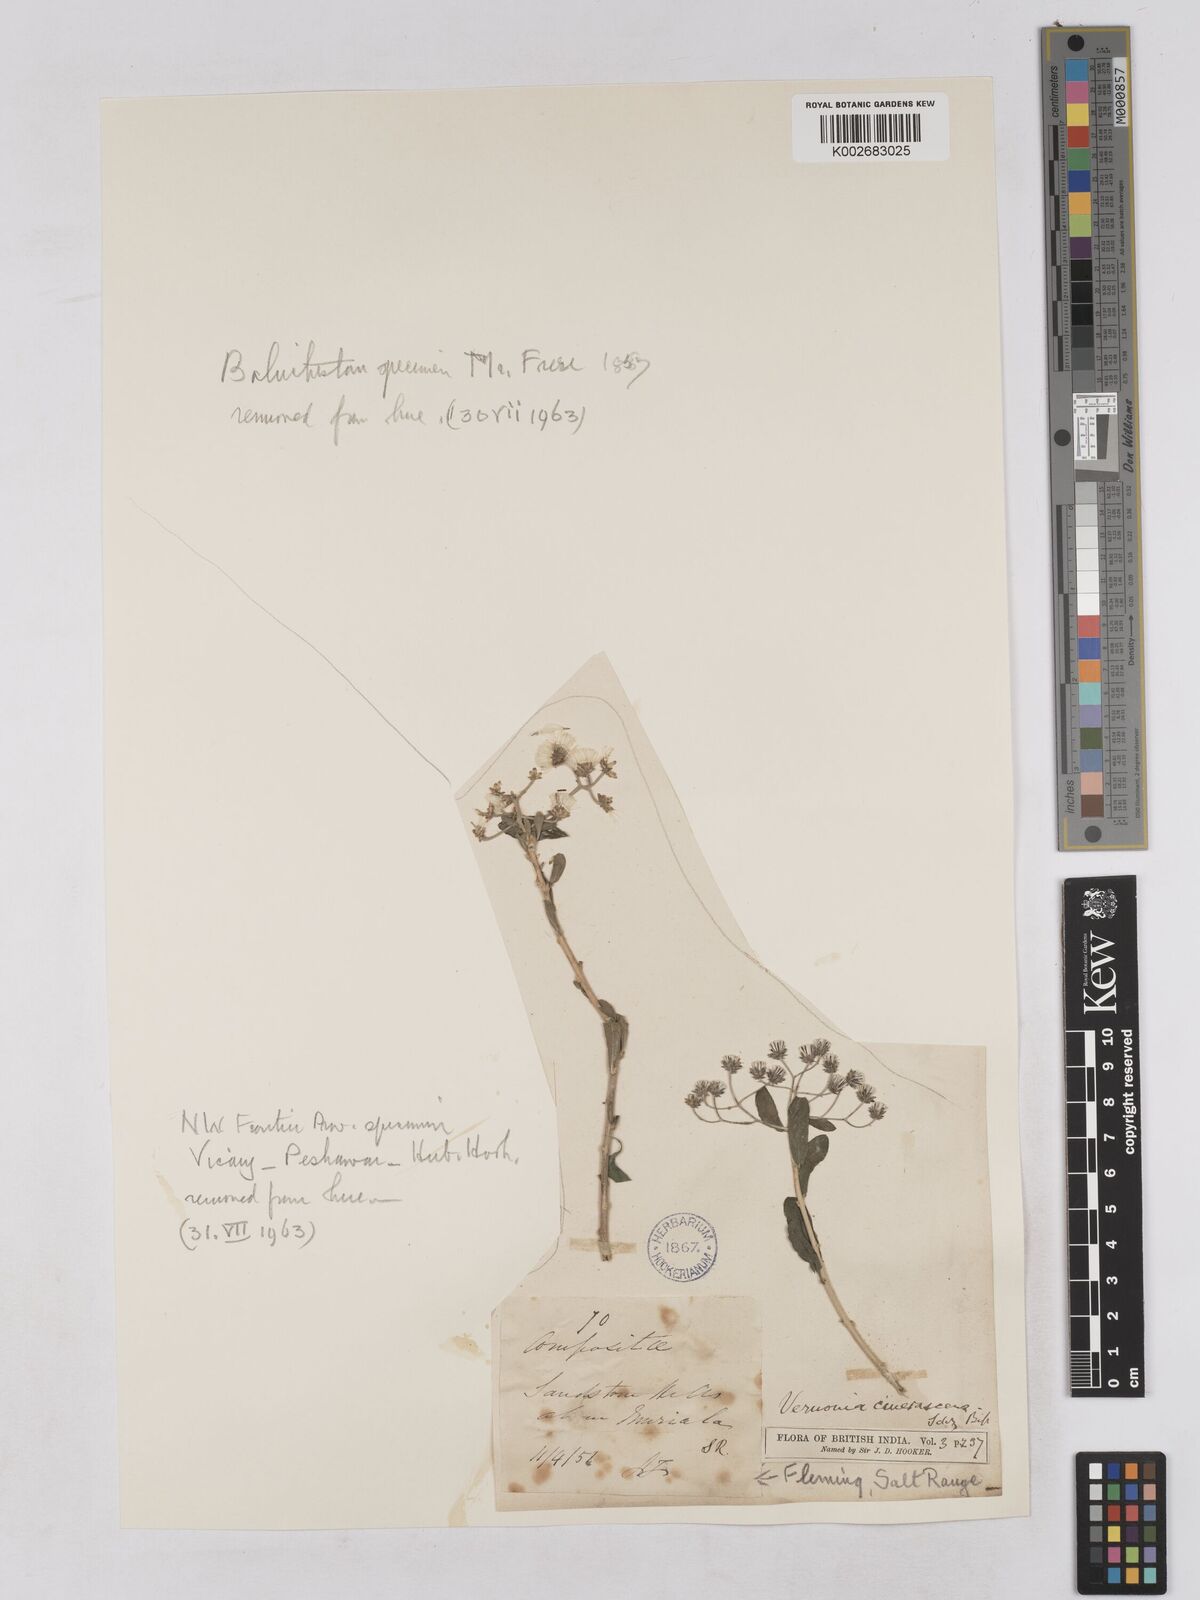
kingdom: Plantae
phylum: Tracheophyta
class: Magnoliopsida
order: Asterales
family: Asteraceae
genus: Orbivestus
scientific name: Orbivestus cinerascens
